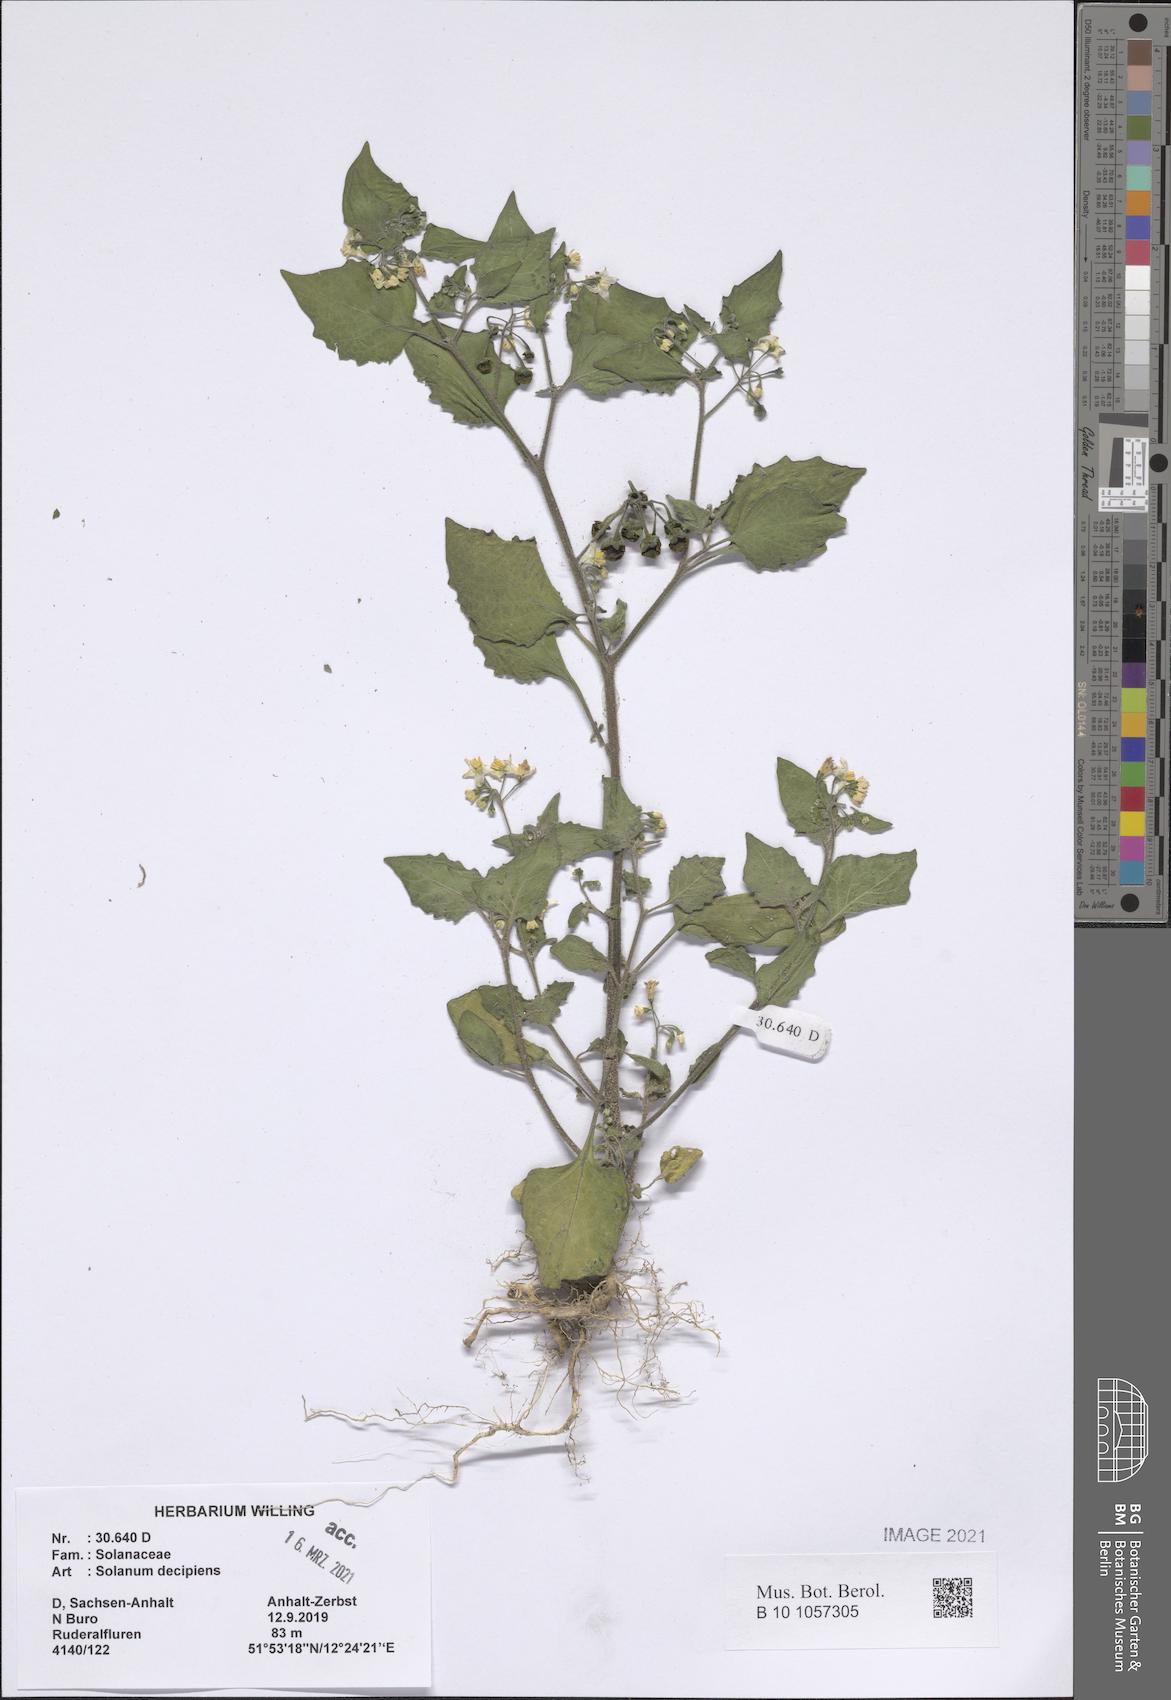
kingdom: Plantae
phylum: Tracheophyta
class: Magnoliopsida
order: Solanales
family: Solanaceae
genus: Solanum
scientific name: Solanum decipiens
